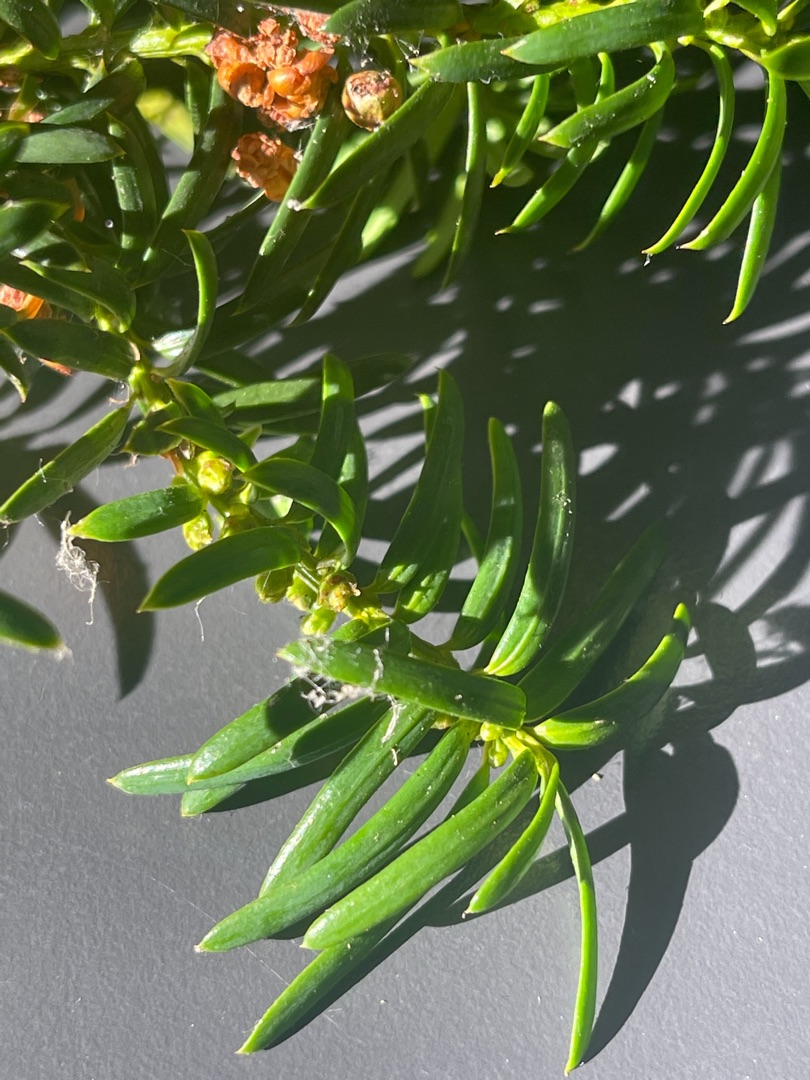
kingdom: Plantae
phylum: Tracheophyta
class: Pinopsida
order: Pinales
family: Taxaceae
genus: Taxus
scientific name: Taxus media
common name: Hybrid-taks
